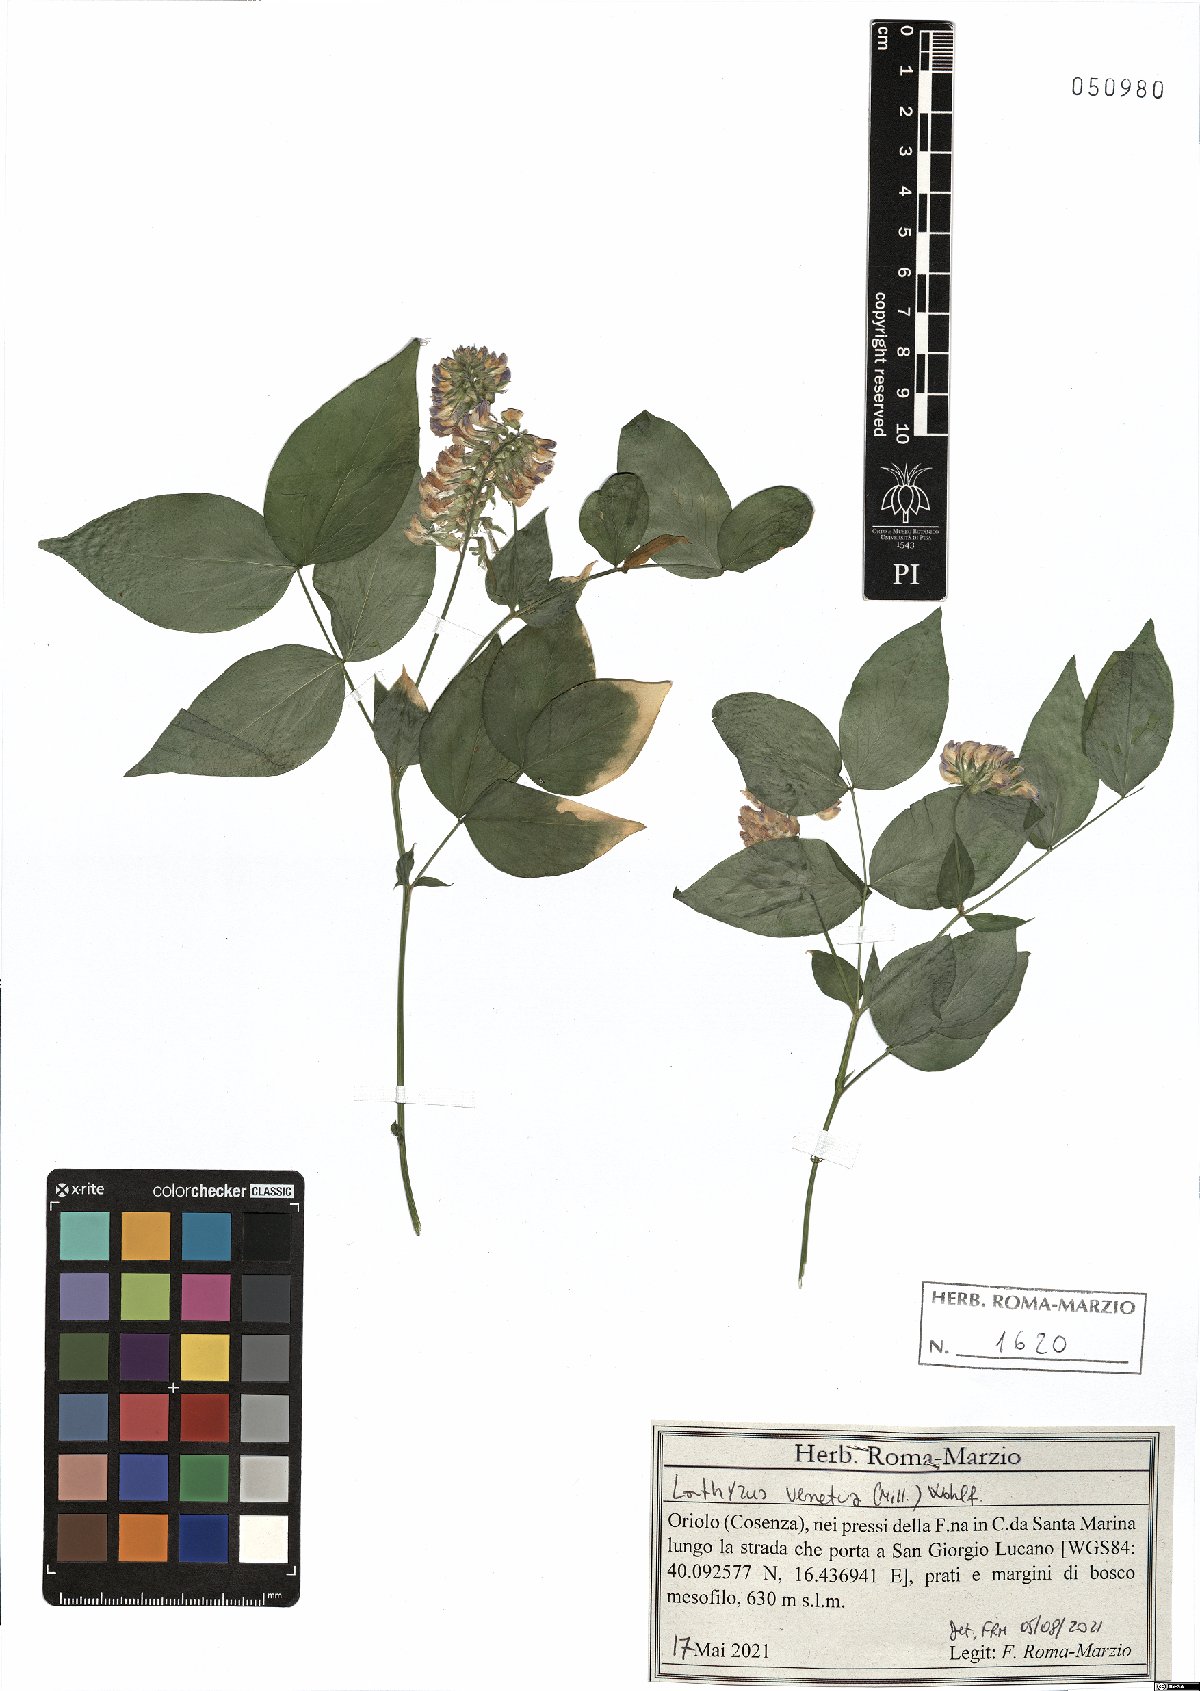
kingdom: Plantae
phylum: Tracheophyta
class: Magnoliopsida
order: Fabales
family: Fabaceae
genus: Lathyrus
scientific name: Lathyrus venetus
